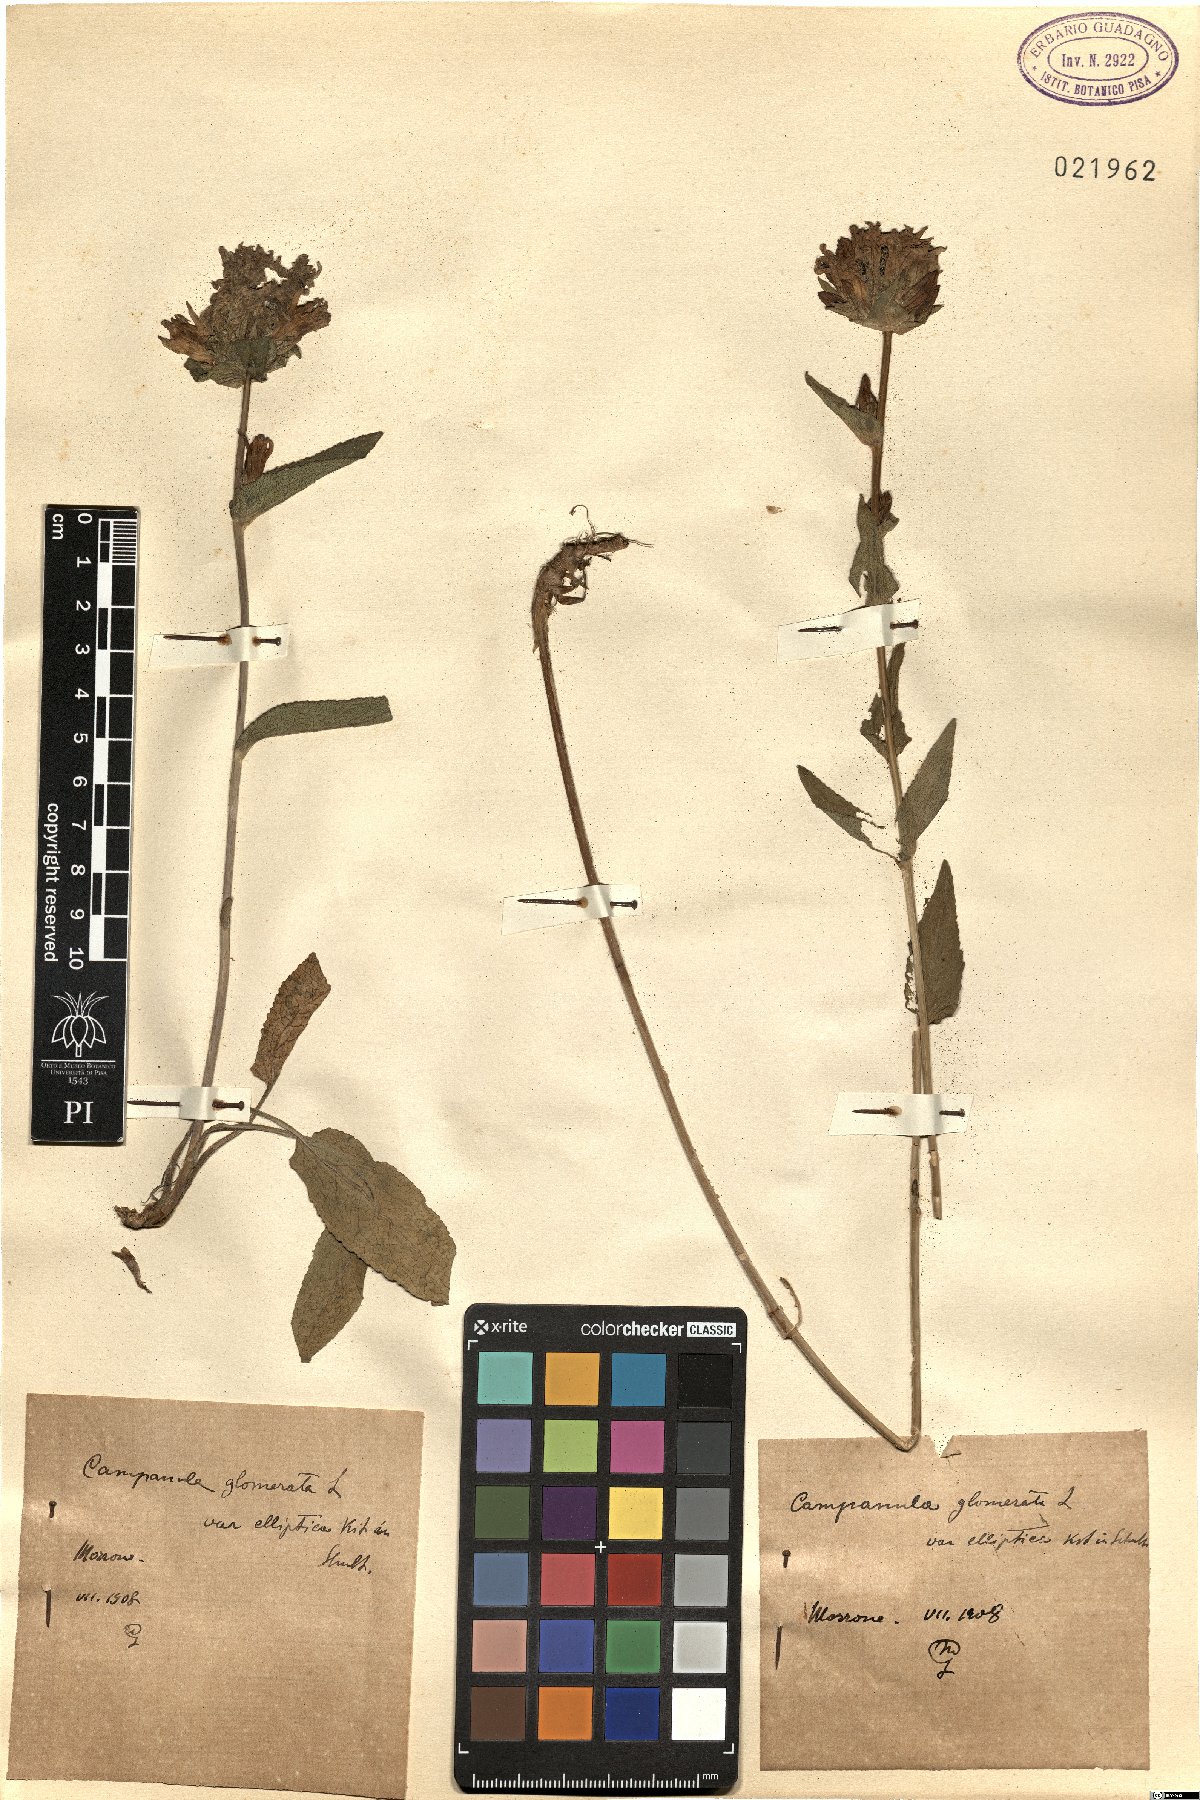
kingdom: Plantae
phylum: Tracheophyta
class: Magnoliopsida
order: Asterales
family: Campanulaceae
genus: Campanula
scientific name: Campanula glomerata
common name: Clustered bellflower
